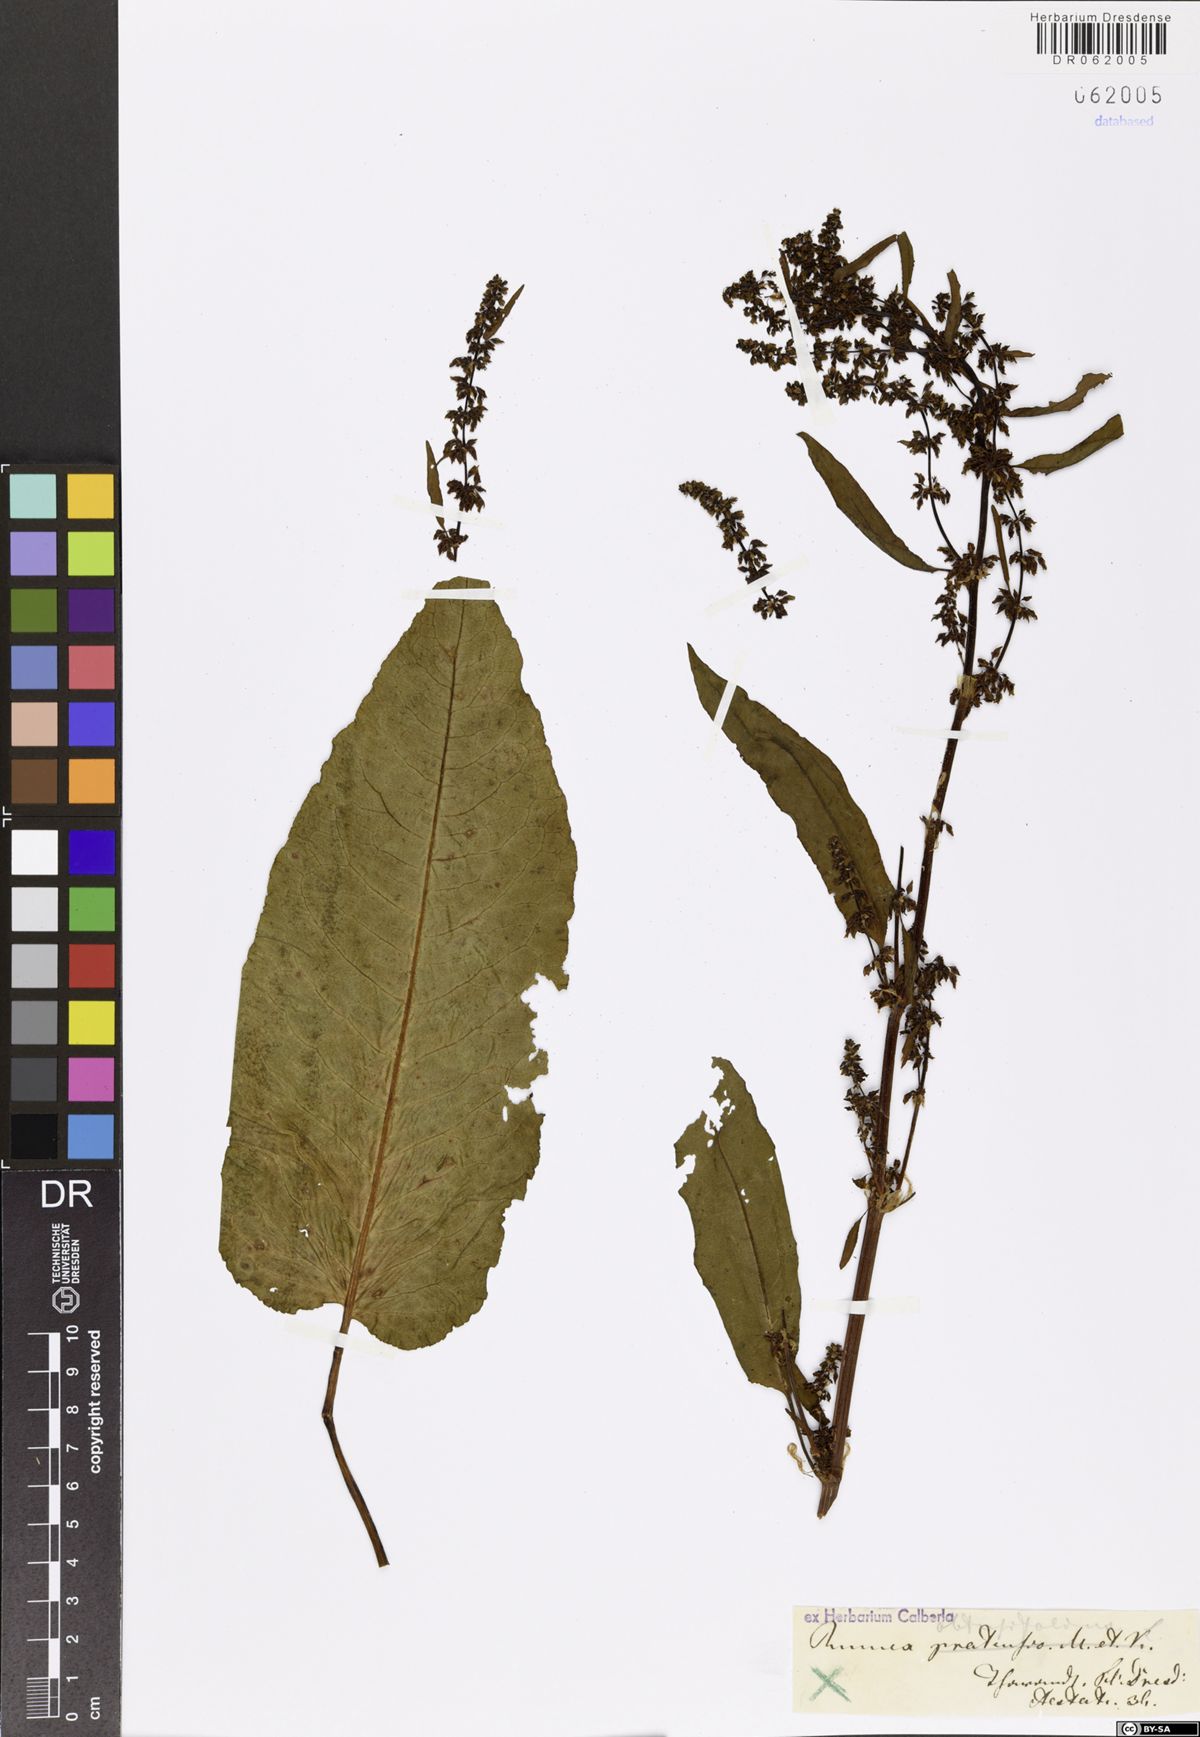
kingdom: Plantae
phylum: Tracheophyta
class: Magnoliopsida
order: Caryophyllales
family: Polygonaceae
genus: Rumex
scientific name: Rumex obtusifolius
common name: Bitter dock
